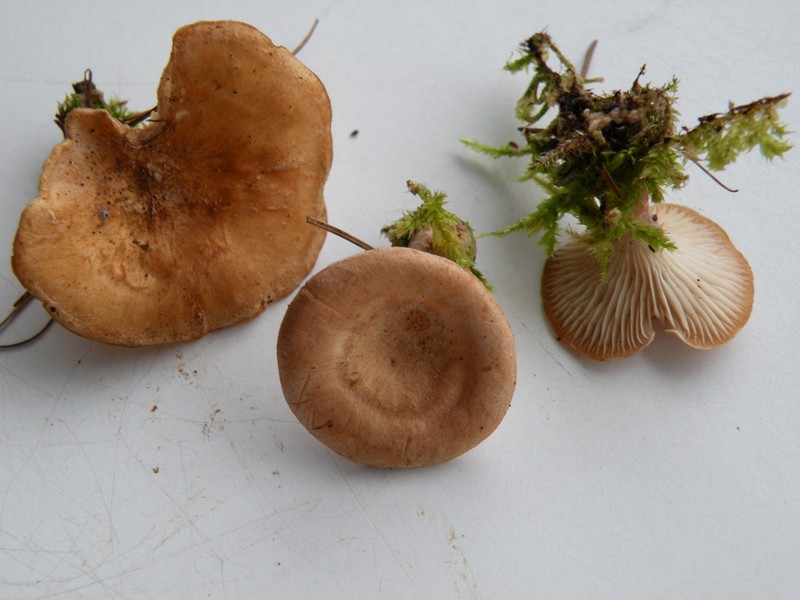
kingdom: Fungi
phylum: Basidiomycota
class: Agaricomycetes
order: Agaricales
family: Tricholomataceae
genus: Infundibulicybe
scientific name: Infundibulicybe alkaliviolascens
